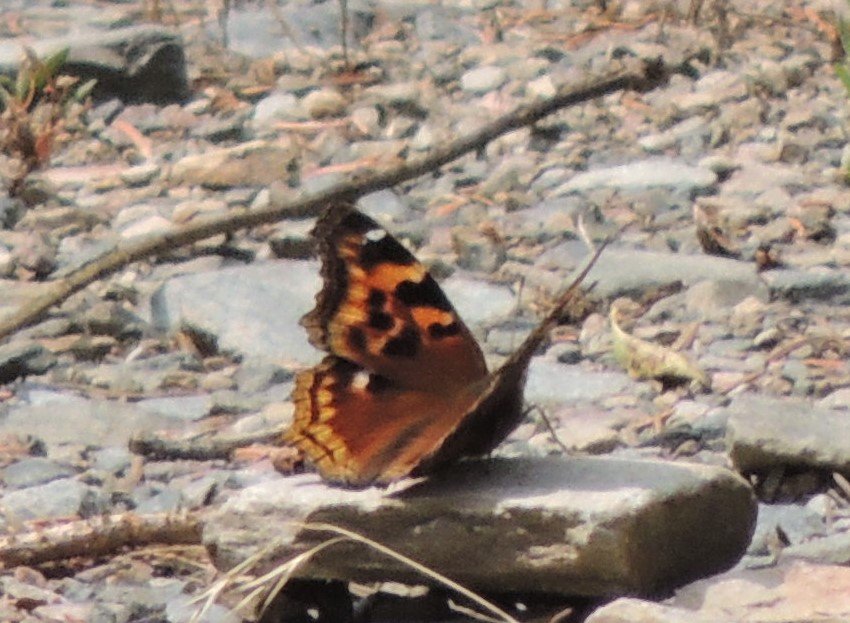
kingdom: Animalia
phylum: Arthropoda
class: Insecta
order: Lepidoptera
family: Nymphalidae
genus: Polygonia
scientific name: Polygonia vaualbum
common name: Compton Tortoiseshell
